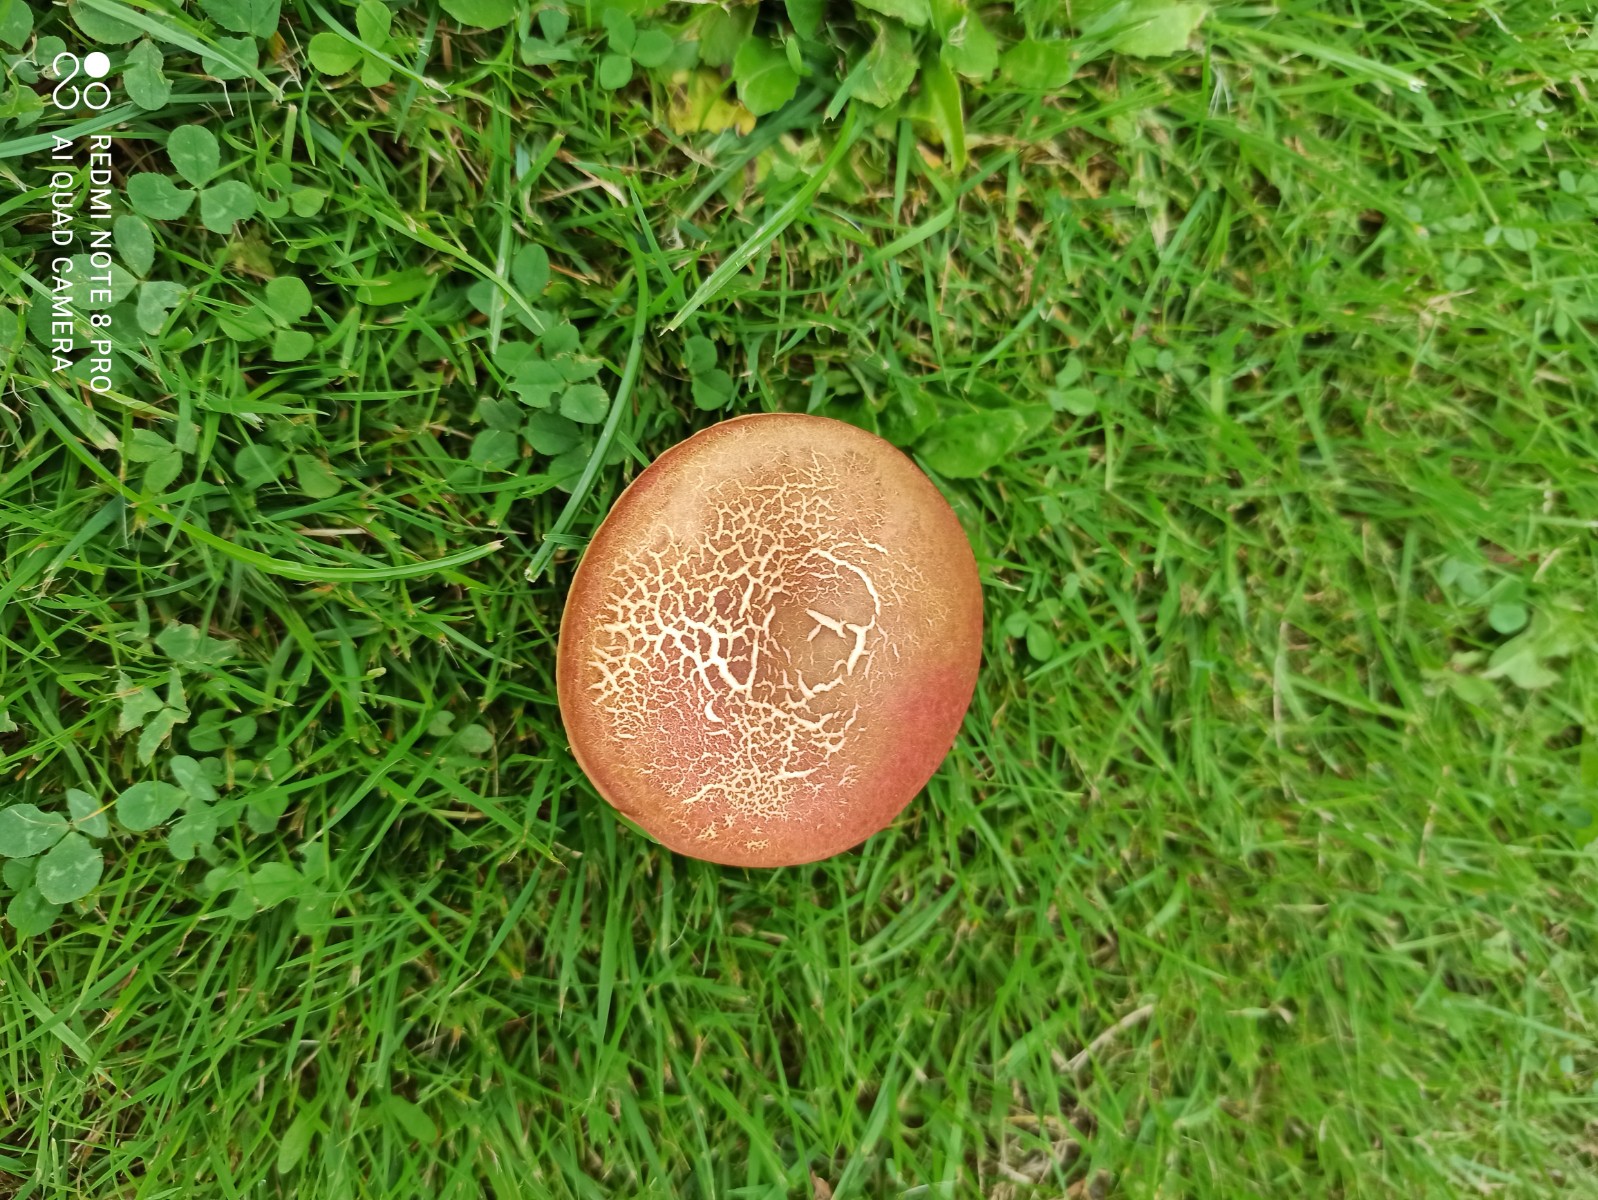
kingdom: Fungi
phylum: Basidiomycota
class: Agaricomycetes
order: Boletales
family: Boletaceae
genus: Hortiboletus
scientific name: Hortiboletus
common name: dværgrørhat
